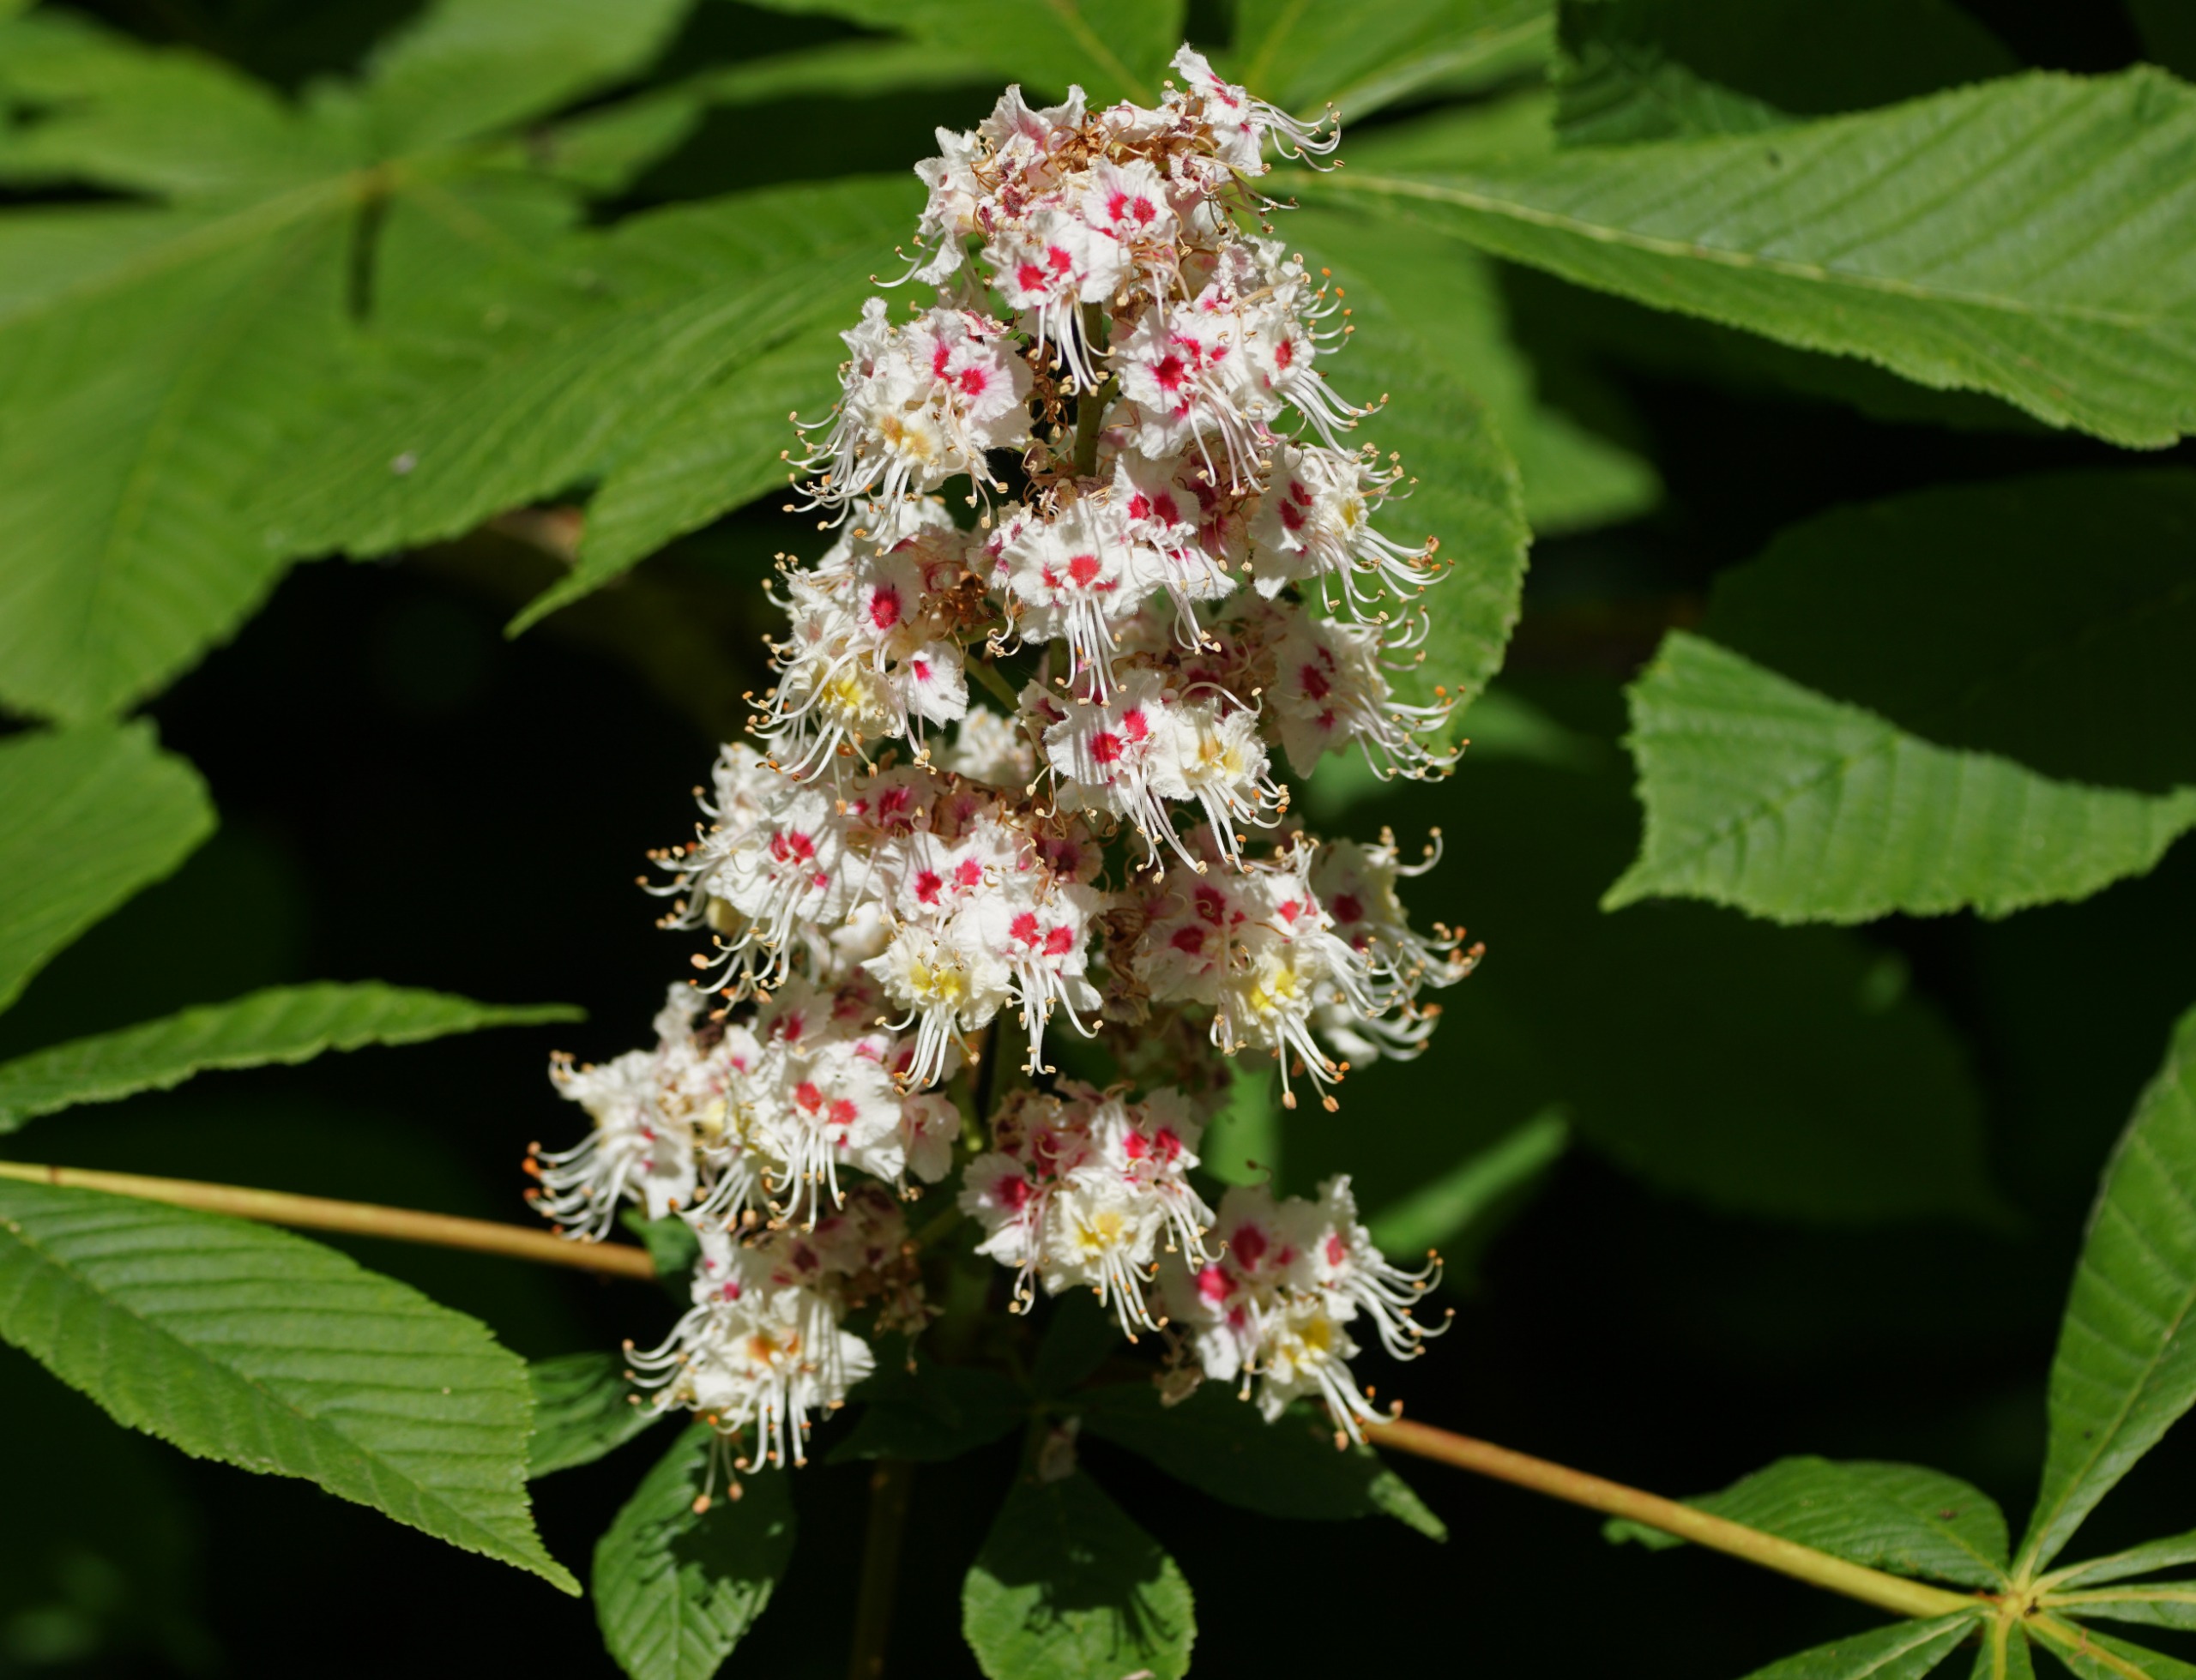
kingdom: Plantae
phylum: Tracheophyta
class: Magnoliopsida
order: Sapindales
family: Sapindaceae
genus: Aesculus
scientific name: Aesculus hippocastanum
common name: Hestekastanie
